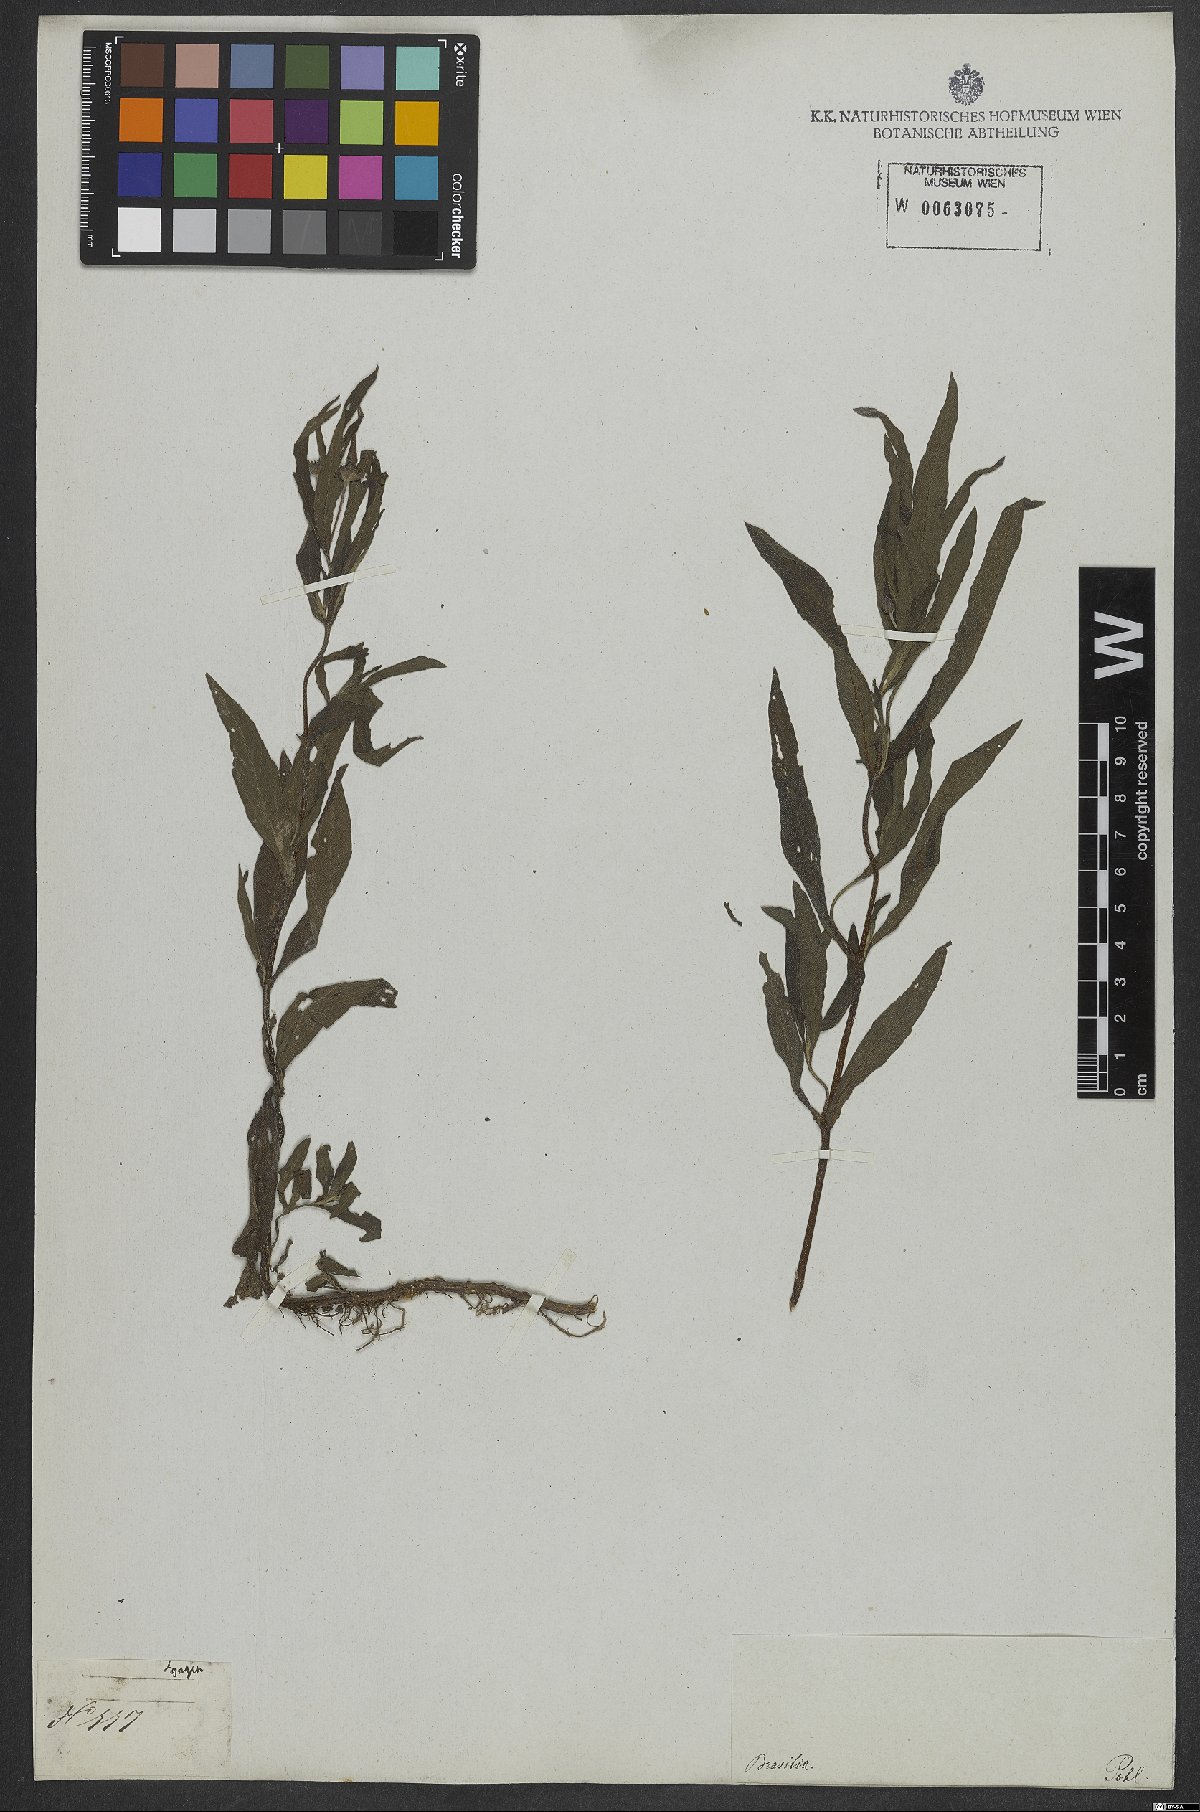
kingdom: Plantae
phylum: Tracheophyta
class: Magnoliopsida
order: Asterales
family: Asteraceae
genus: Eclipta
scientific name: Eclipta
